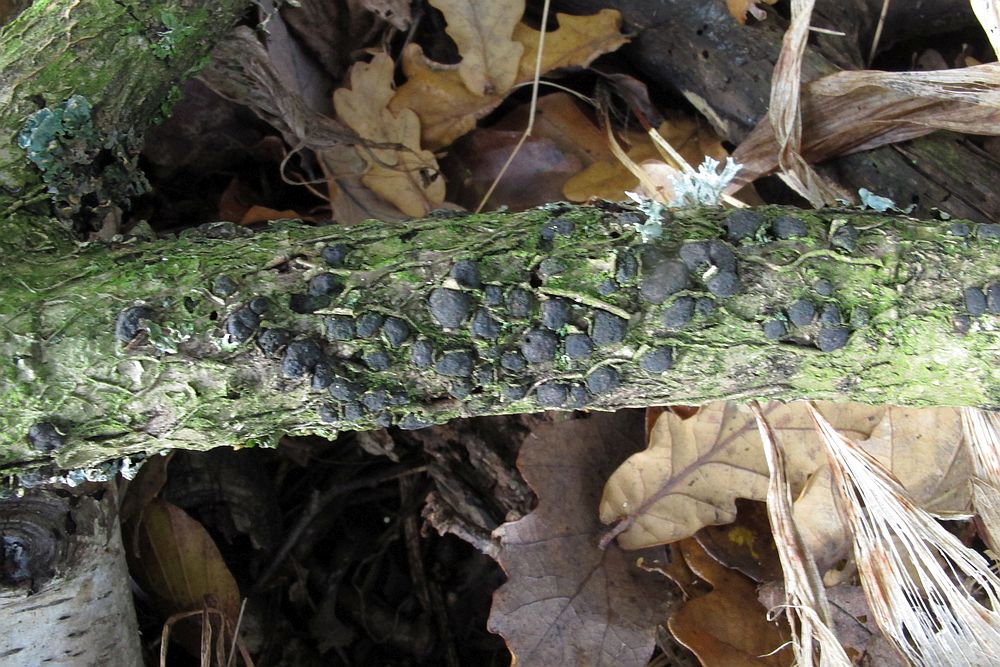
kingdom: Fungi
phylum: Ascomycota
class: Sordariomycetes
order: Xylariales
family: Diatrypaceae
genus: Diatrypella
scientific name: Diatrypella quercina
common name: ege-kulskorpe
